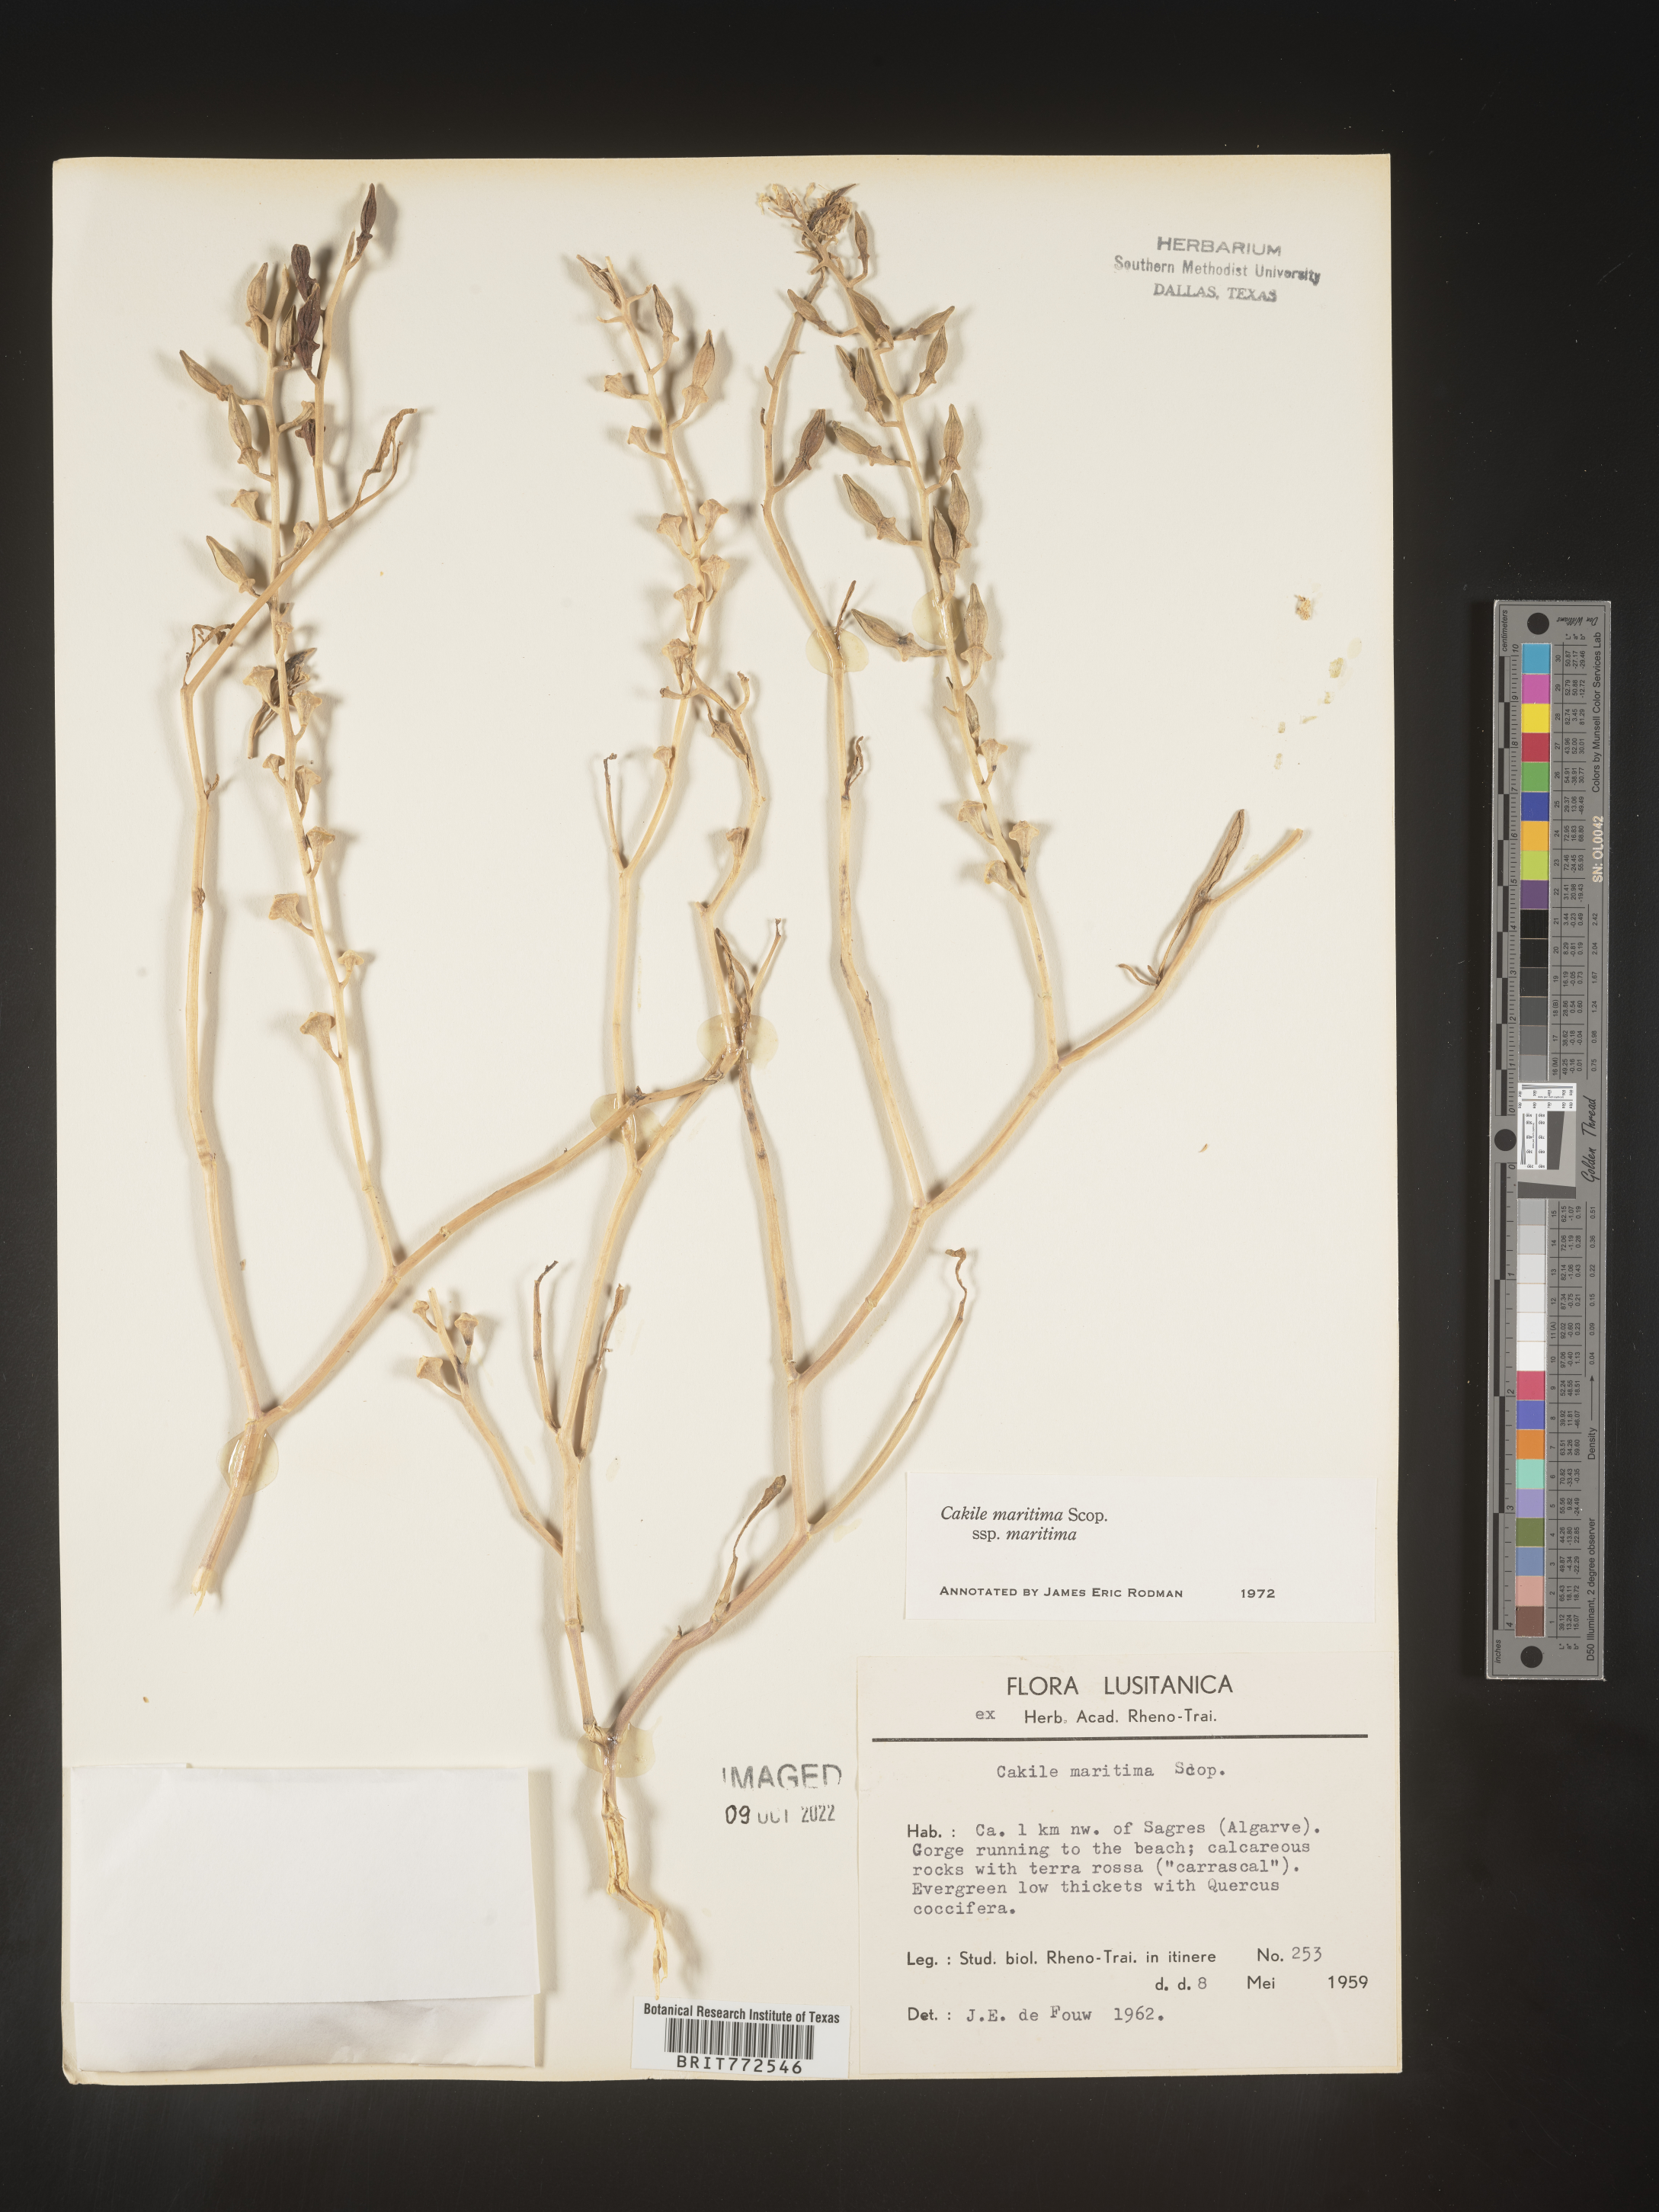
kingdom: Plantae
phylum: Tracheophyta
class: Magnoliopsida
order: Brassicales
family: Brassicaceae
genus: Cakile
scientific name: Cakile
